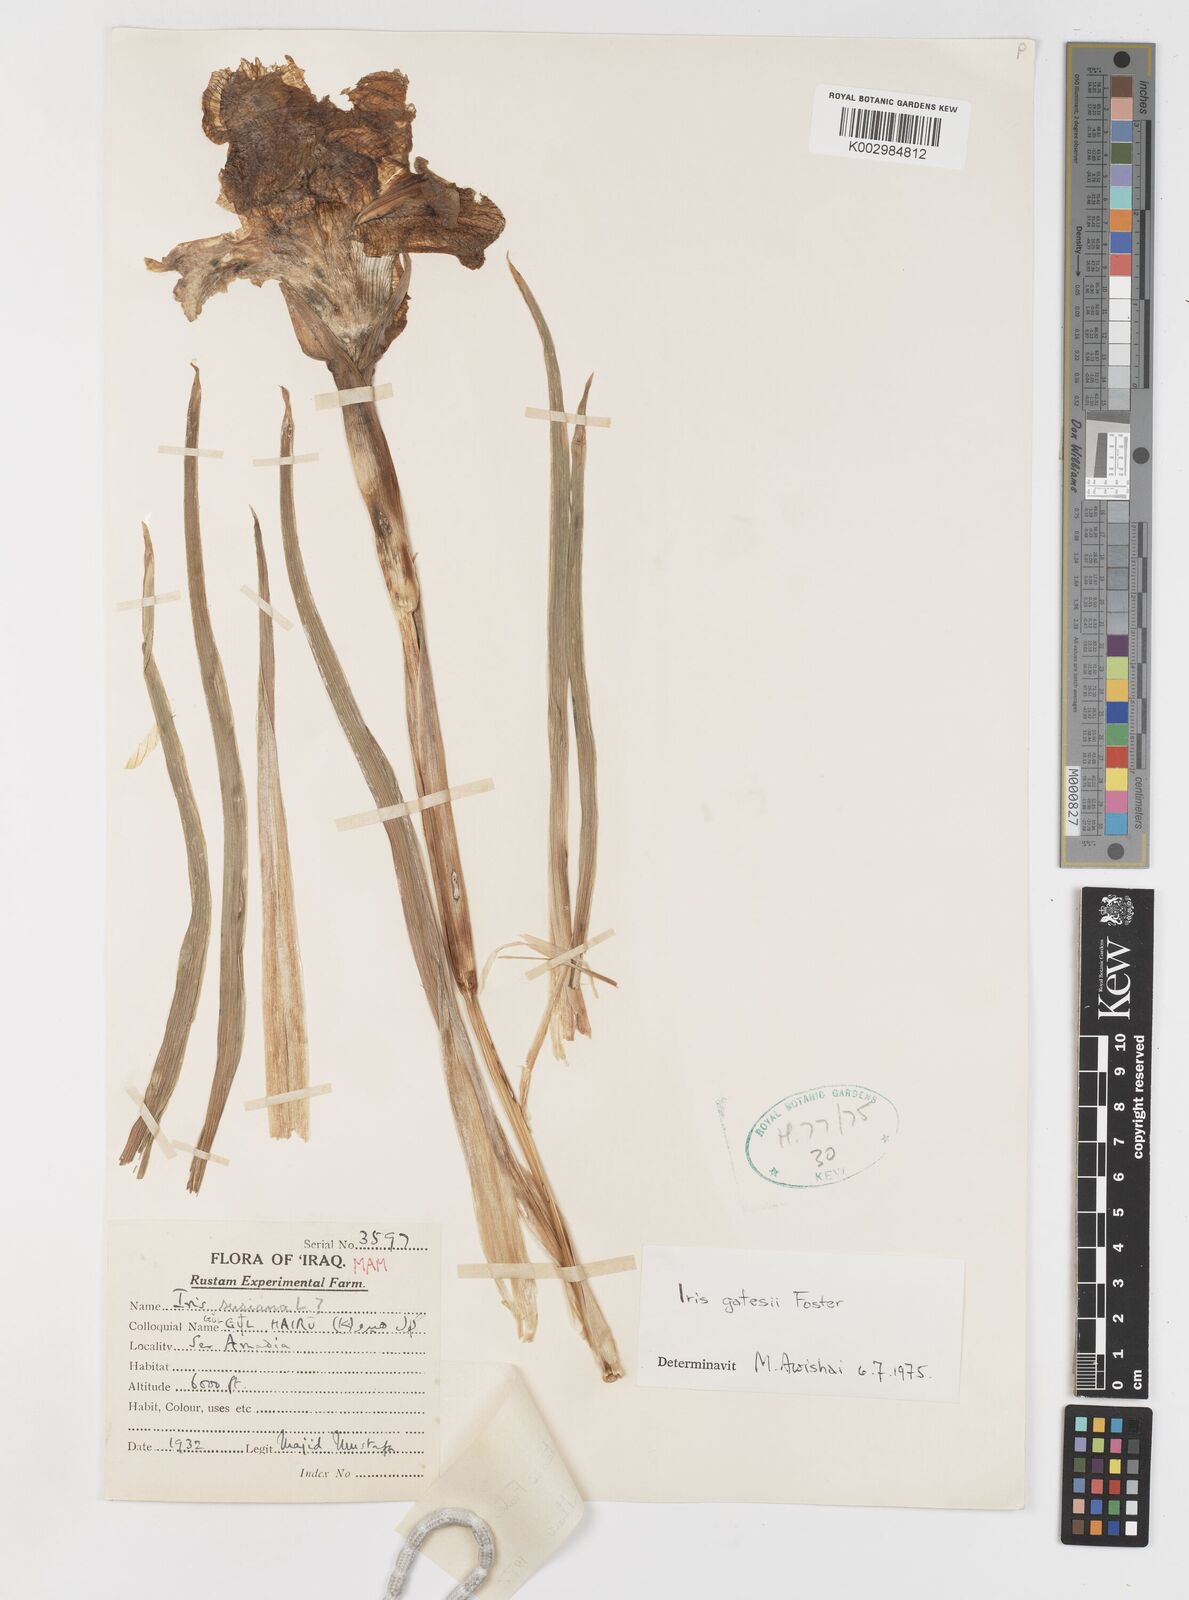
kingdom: Plantae
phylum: Tracheophyta
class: Liliopsida
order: Asparagales
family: Iridaceae
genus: Iris
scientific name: Iris gatesii
